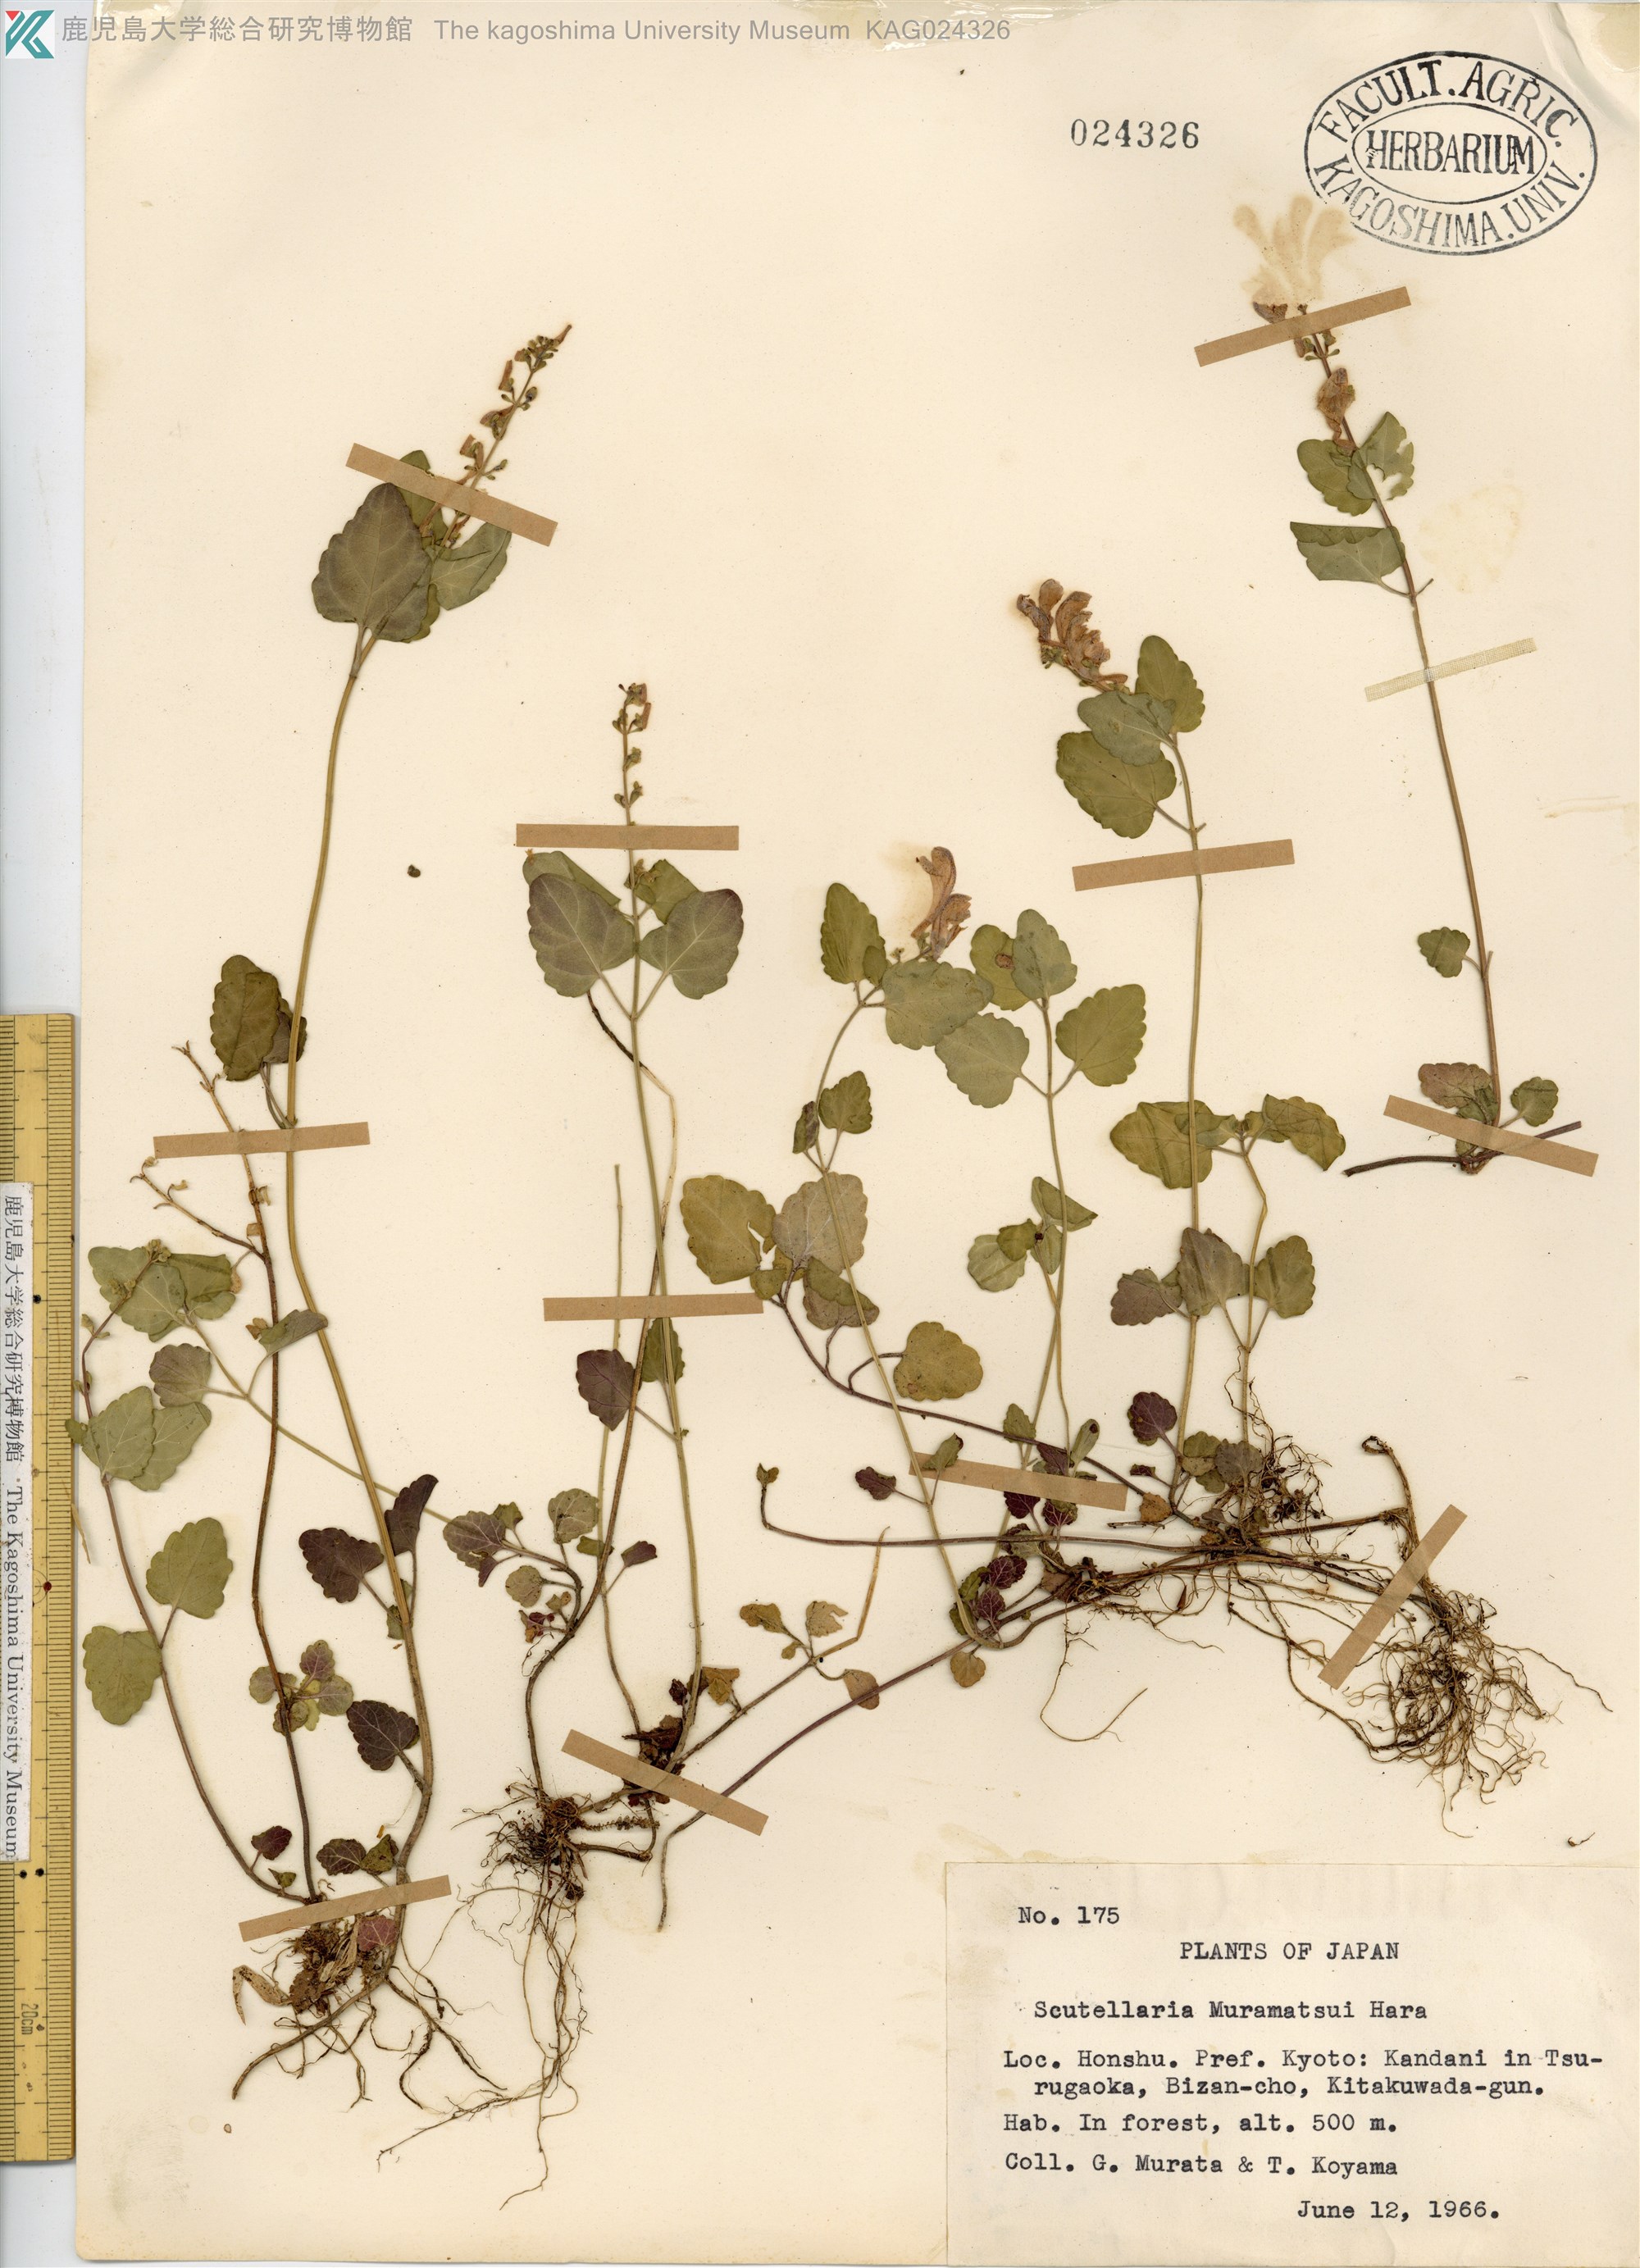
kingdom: Plantae
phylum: Tracheophyta
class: Magnoliopsida
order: Lamiales
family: Lamiaceae
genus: Scutellaria
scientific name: Scutellaria muramatsui
